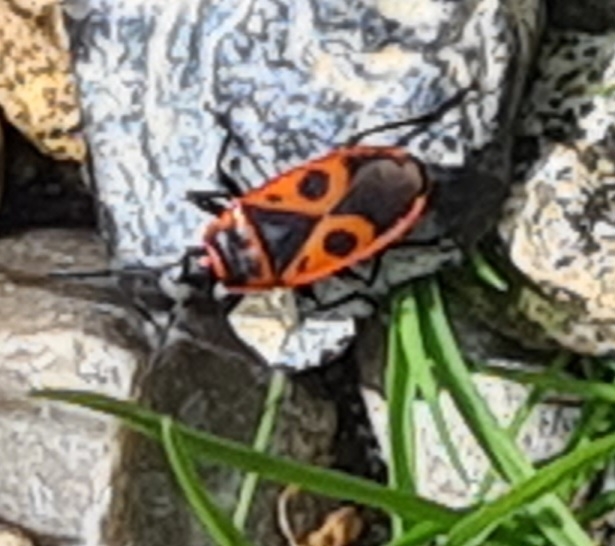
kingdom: Animalia
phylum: Arthropoda
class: Insecta
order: Hemiptera
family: Pyrrhocoridae
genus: Pyrrhocoris
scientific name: Pyrrhocoris apterus
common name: Ildtæge
